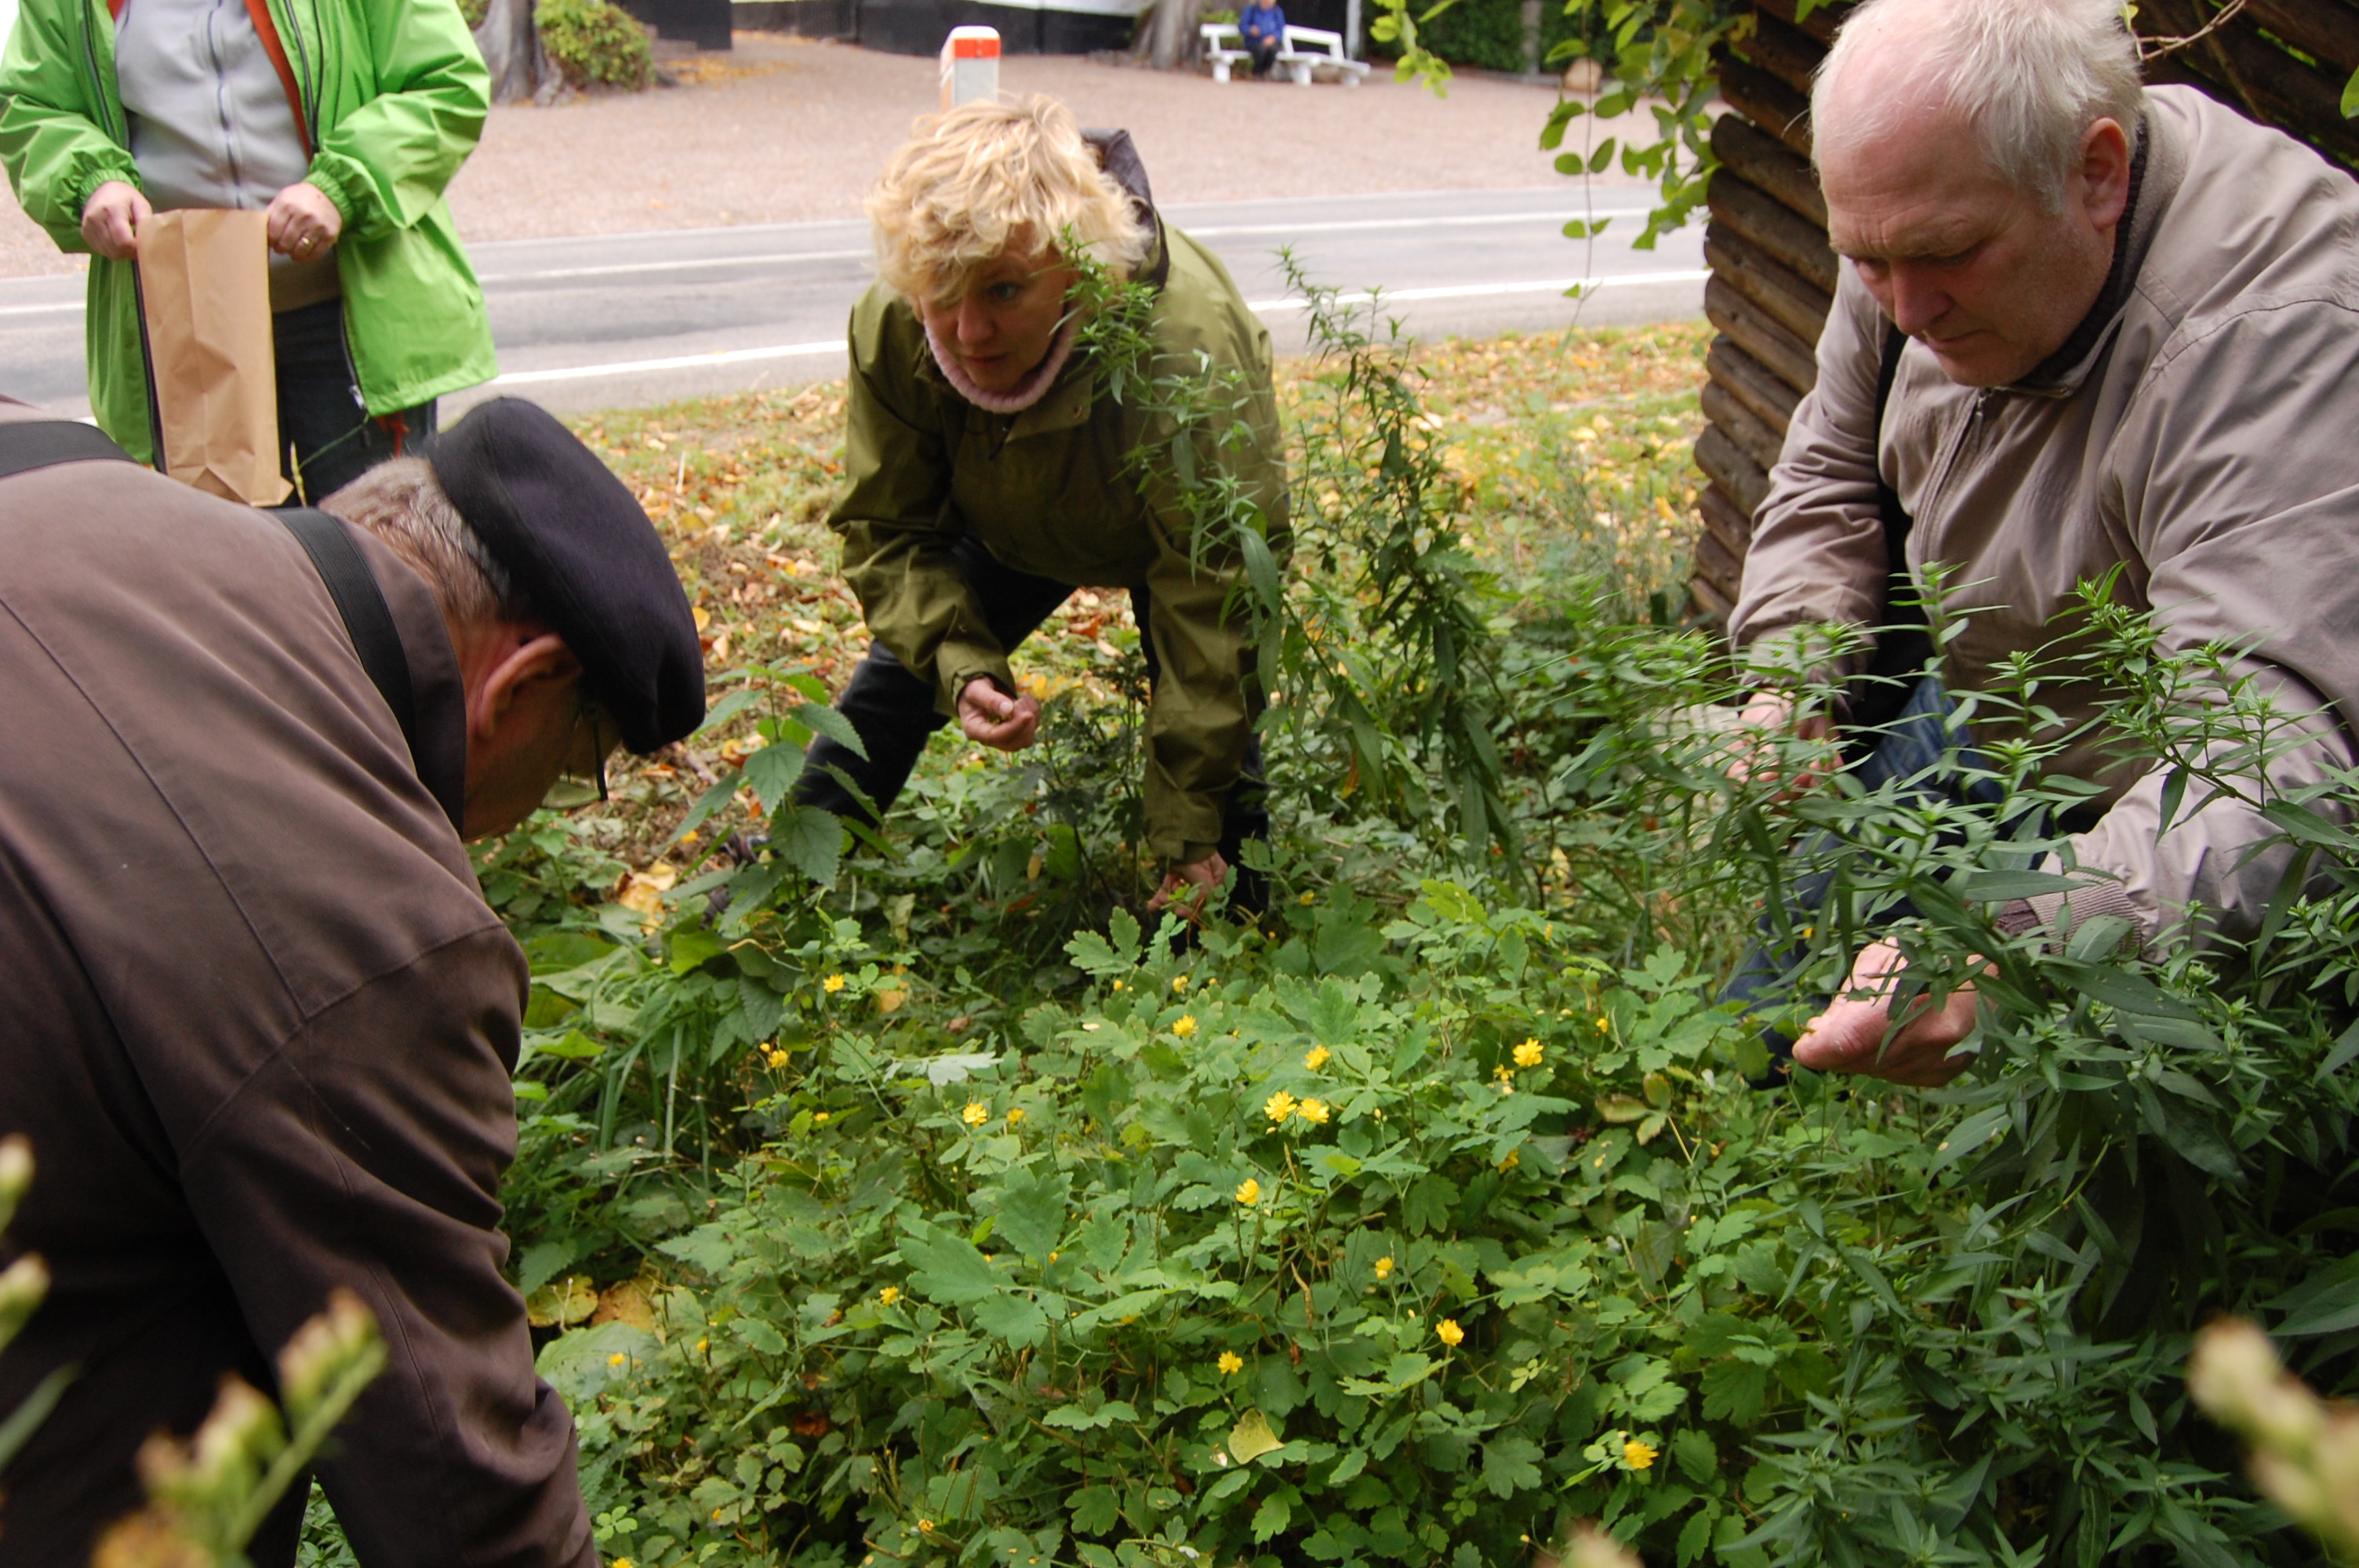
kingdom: Plantae
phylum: Tracheophyta
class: Magnoliopsida
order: Ranunculales
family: Papaveraceae
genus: Chelidonium
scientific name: Chelidonium majus
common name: Greater celandine
